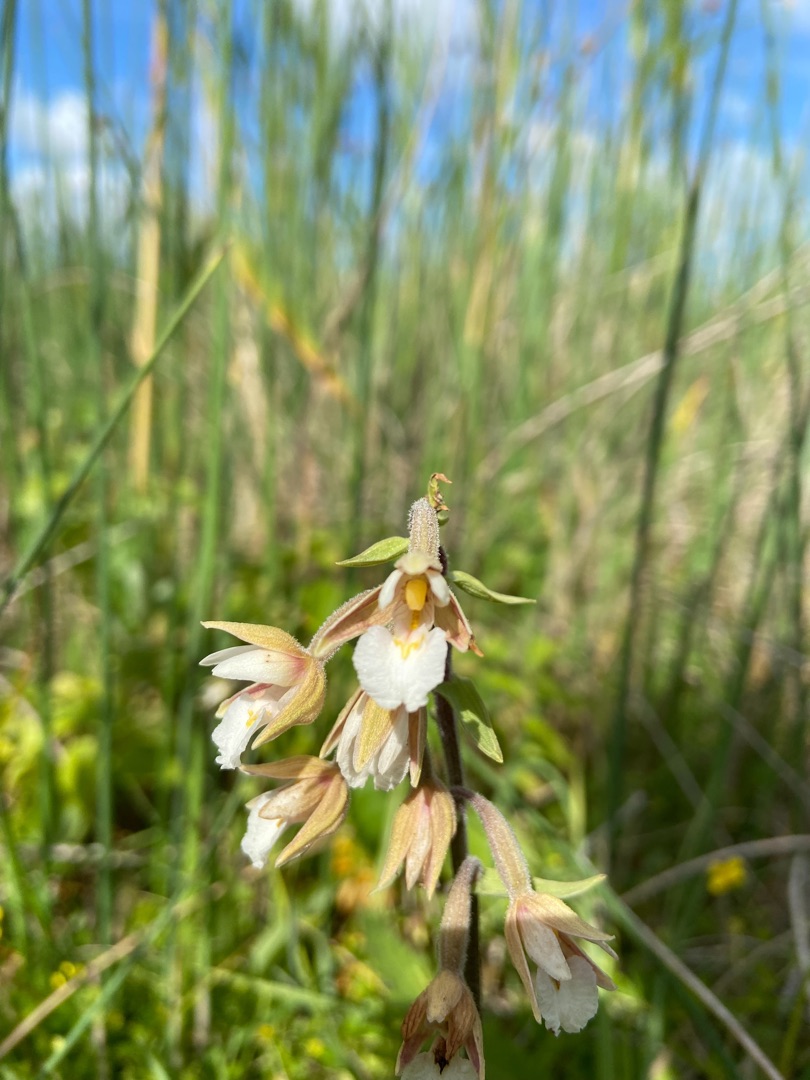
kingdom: Plantae
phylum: Tracheophyta
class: Liliopsida
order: Asparagales
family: Orchidaceae
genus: Epipactis
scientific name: Epipactis palustris
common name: Sump-hullæbe
